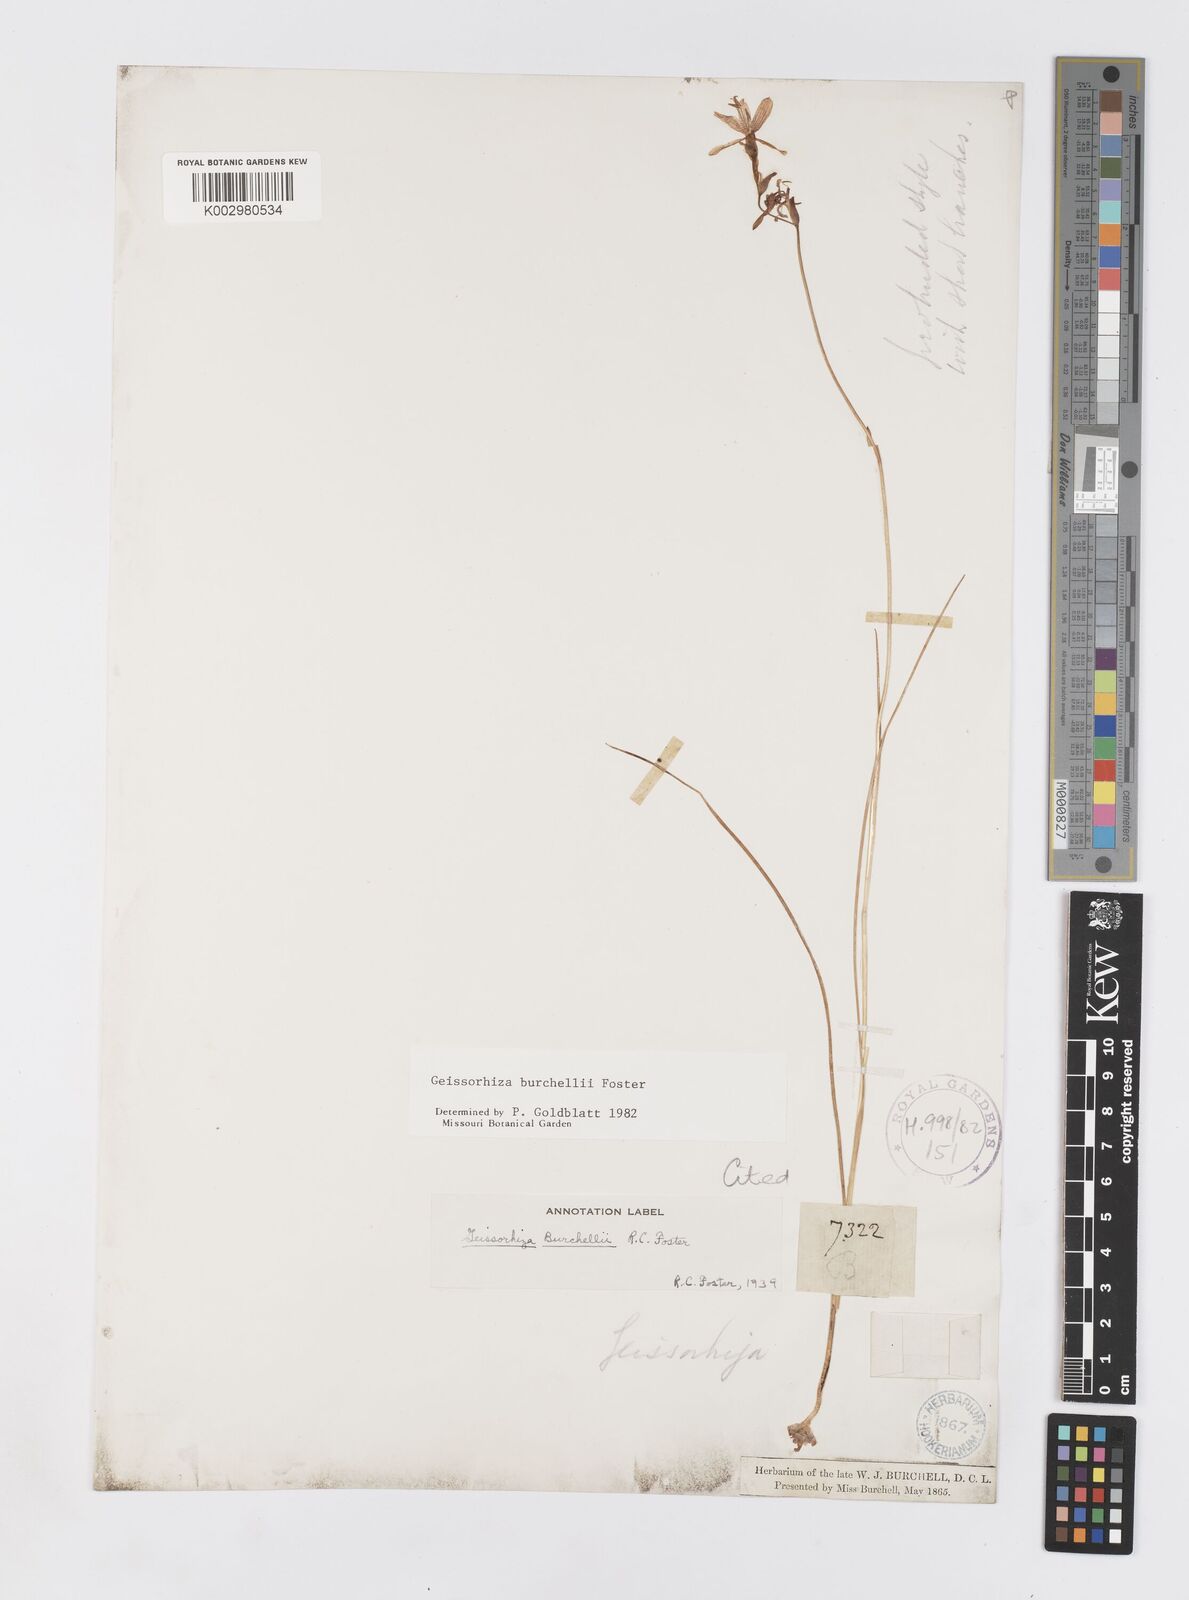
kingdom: Plantae
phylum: Tracheophyta
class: Liliopsida
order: Asparagales
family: Iridaceae
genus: Geissorhiza
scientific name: Geissorhiza burchellii
